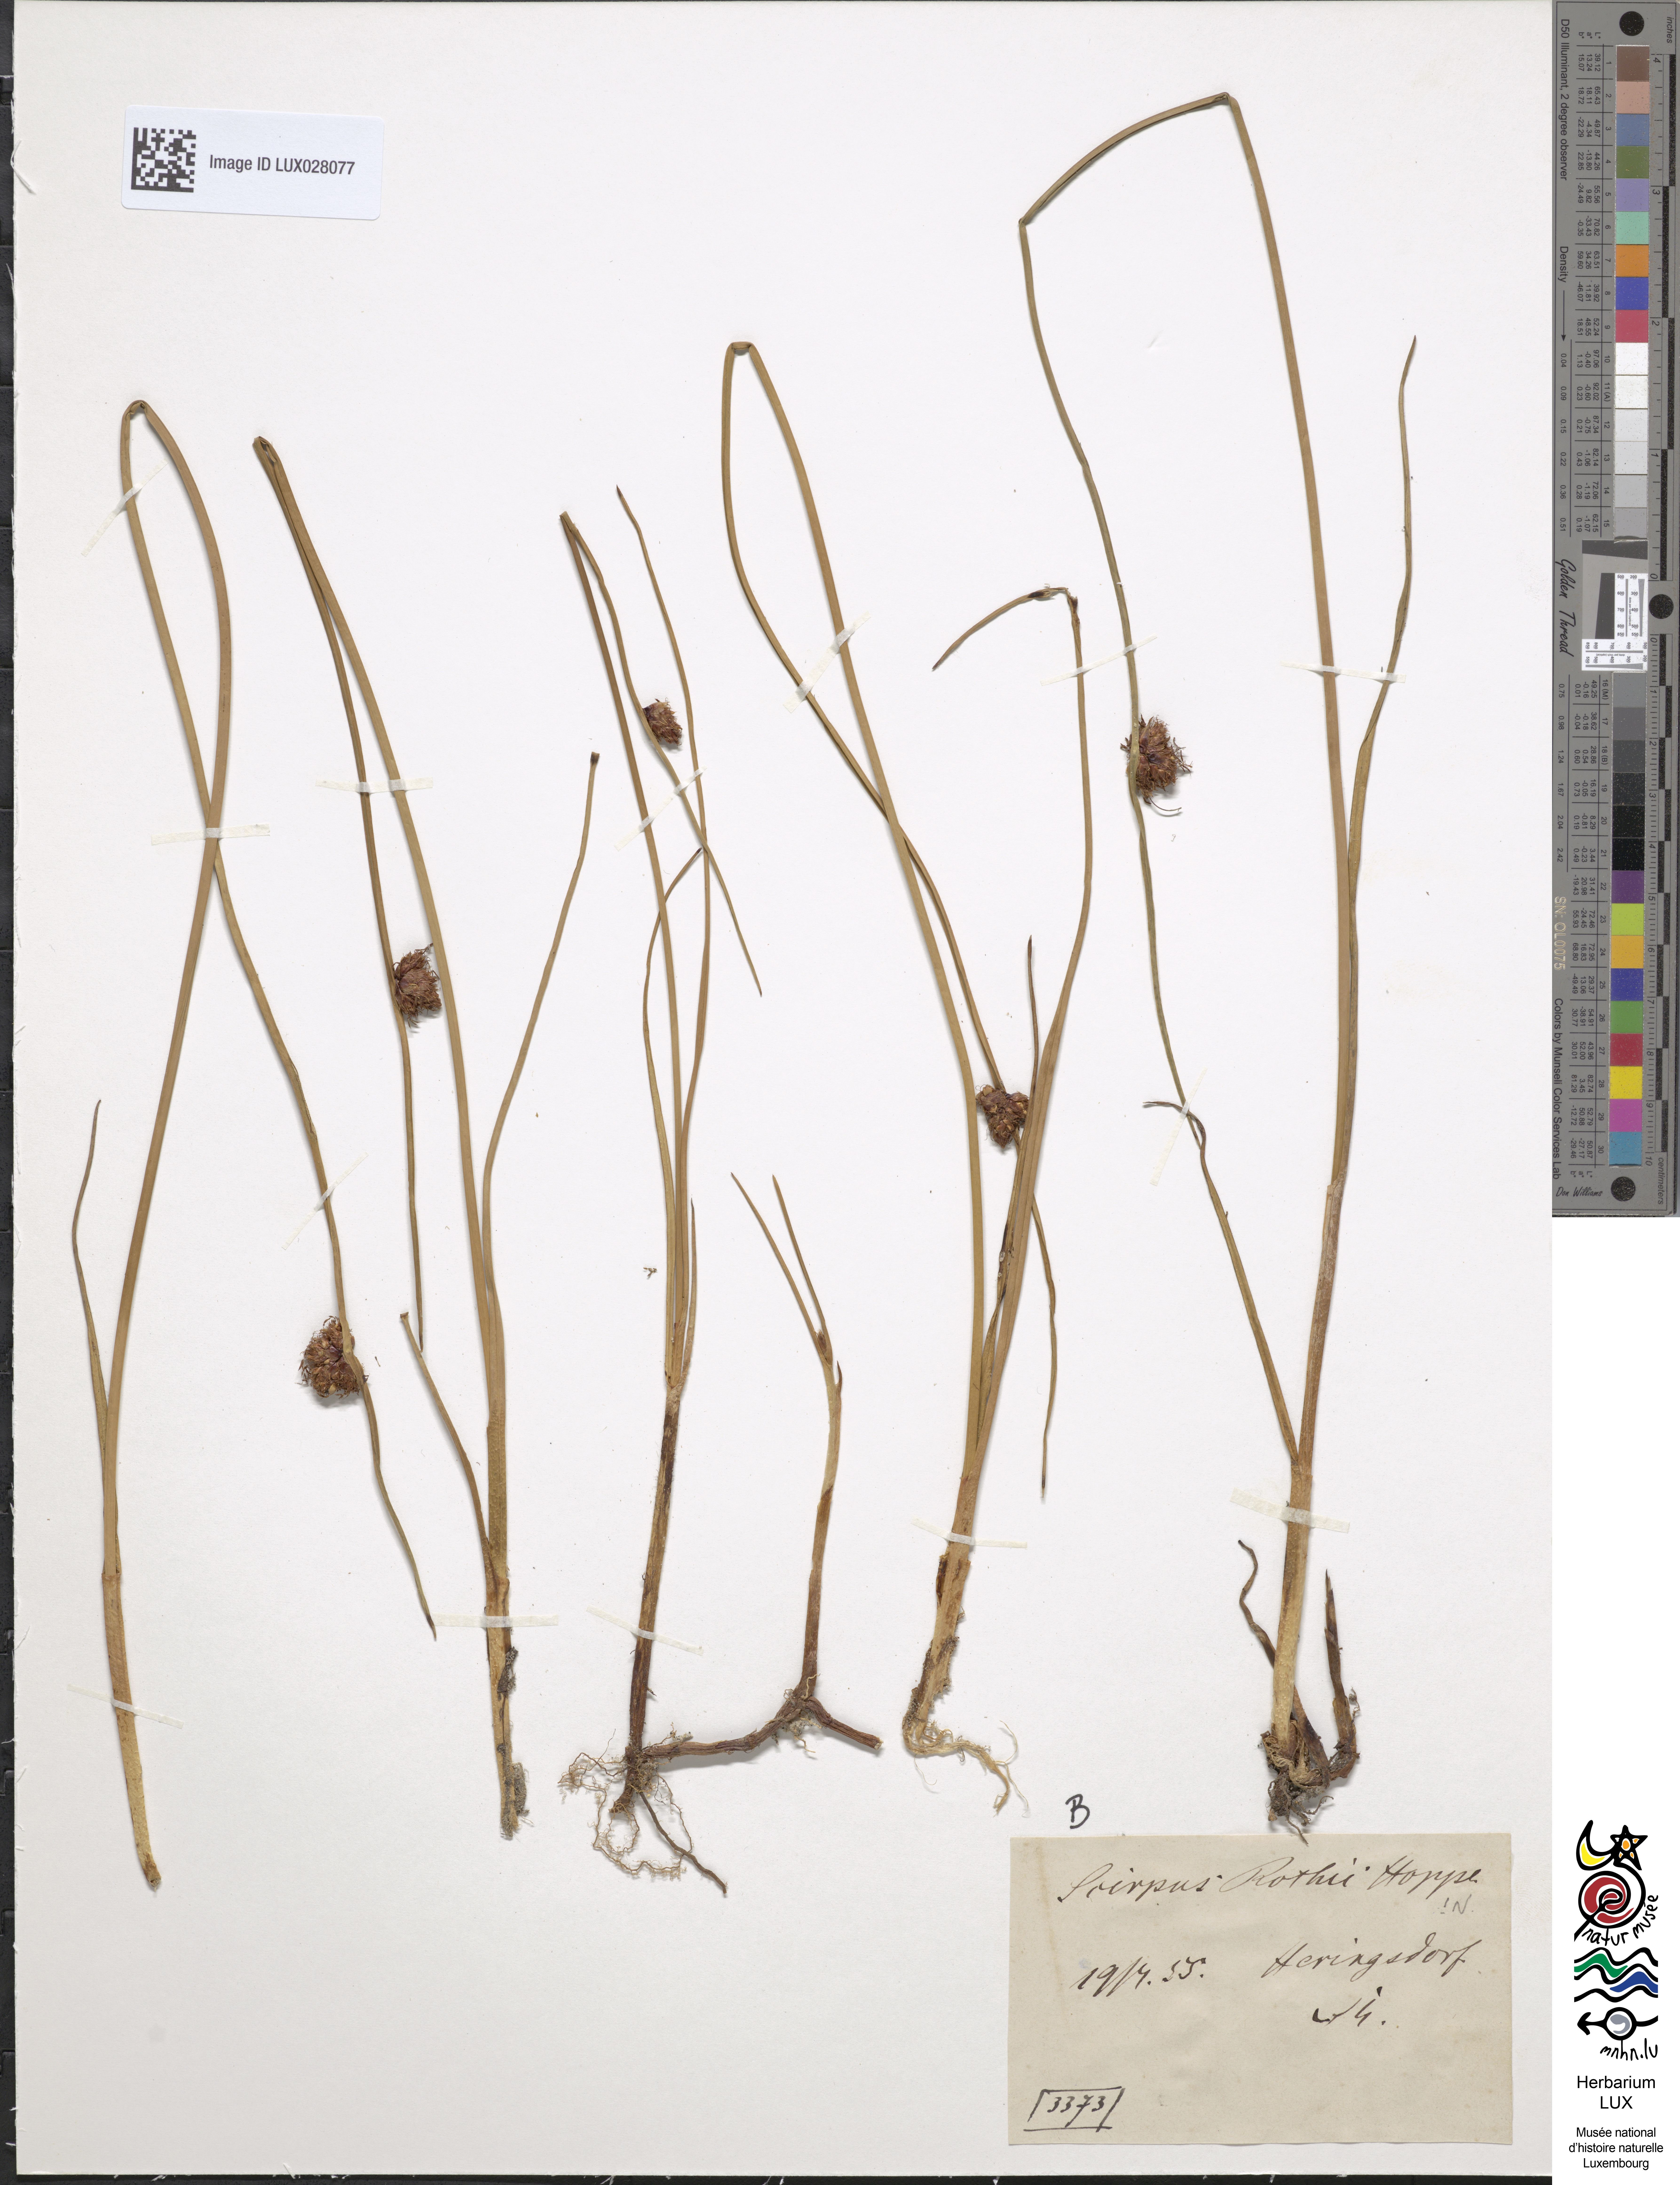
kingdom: Plantae
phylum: Tracheophyta
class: Liliopsida
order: Poales
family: Cyperaceae
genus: Schoenoplectus
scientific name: Schoenoplectus pungens
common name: Sharp club-rush
